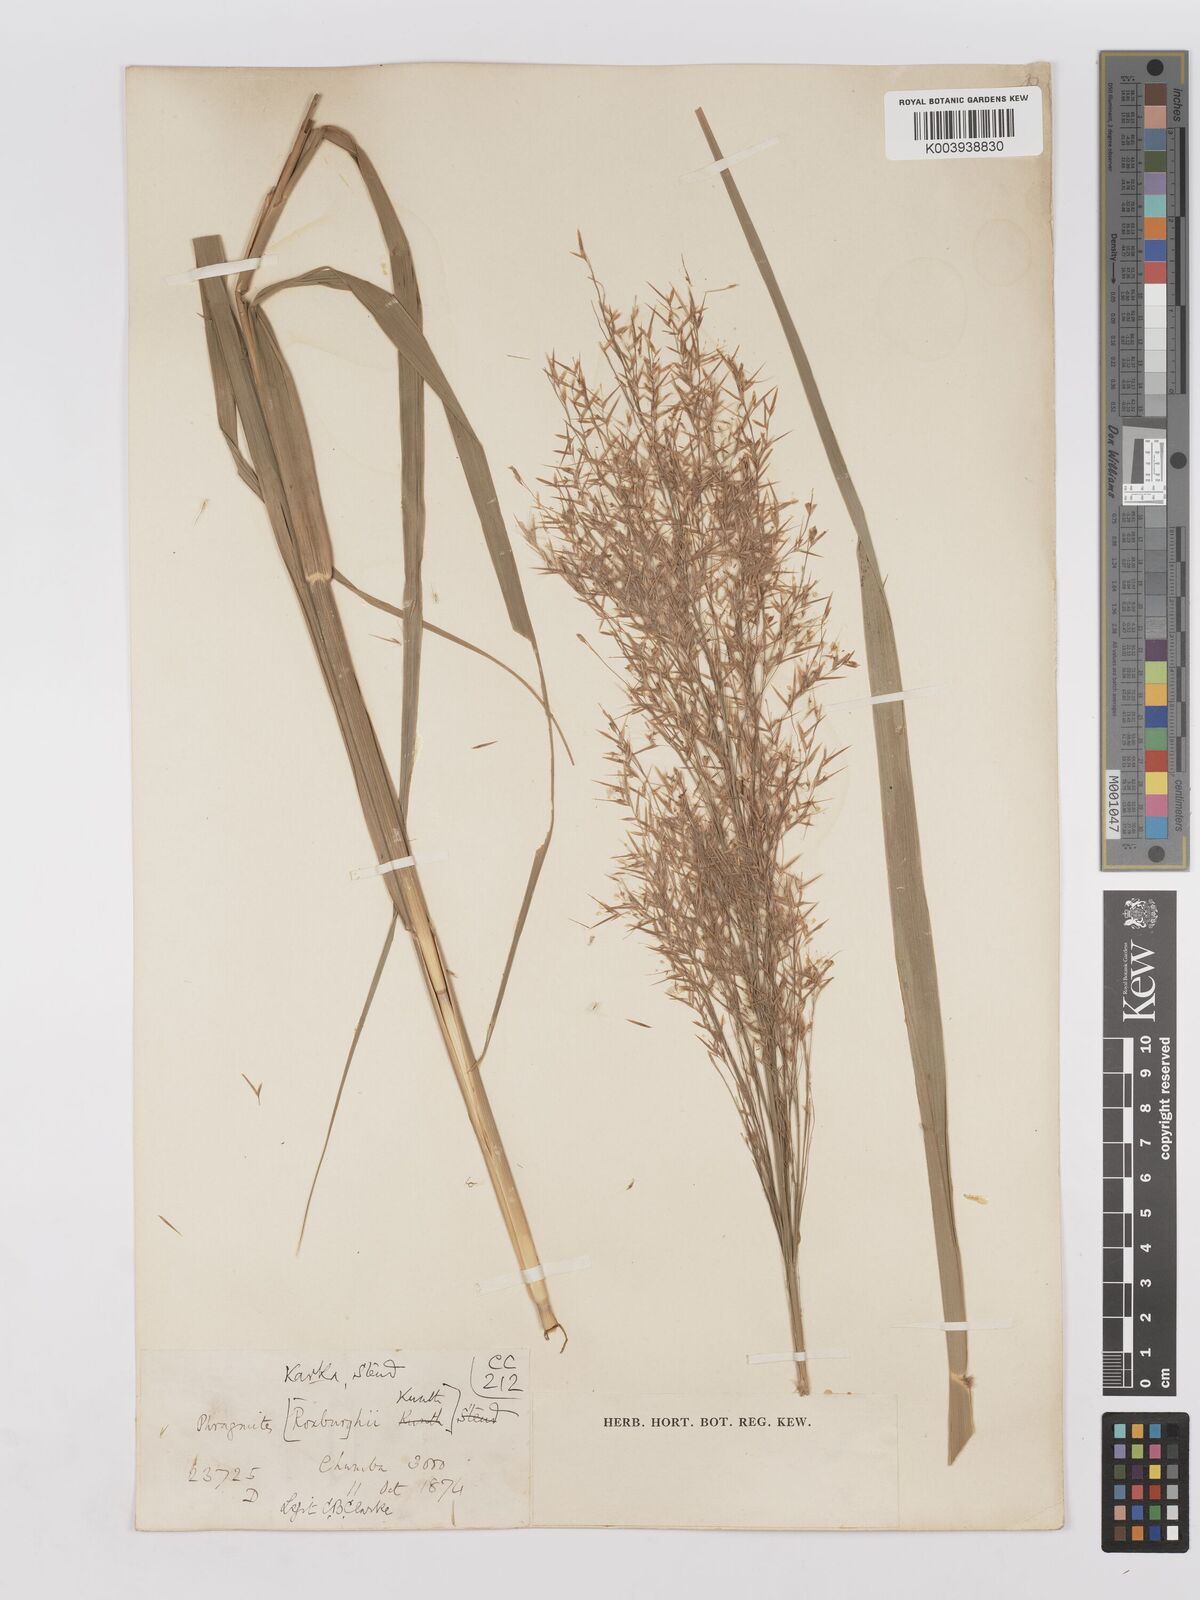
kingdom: Plantae
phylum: Tracheophyta
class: Liliopsida
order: Poales
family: Poaceae
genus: Phragmites
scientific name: Phragmites karka
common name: Tropical reed
